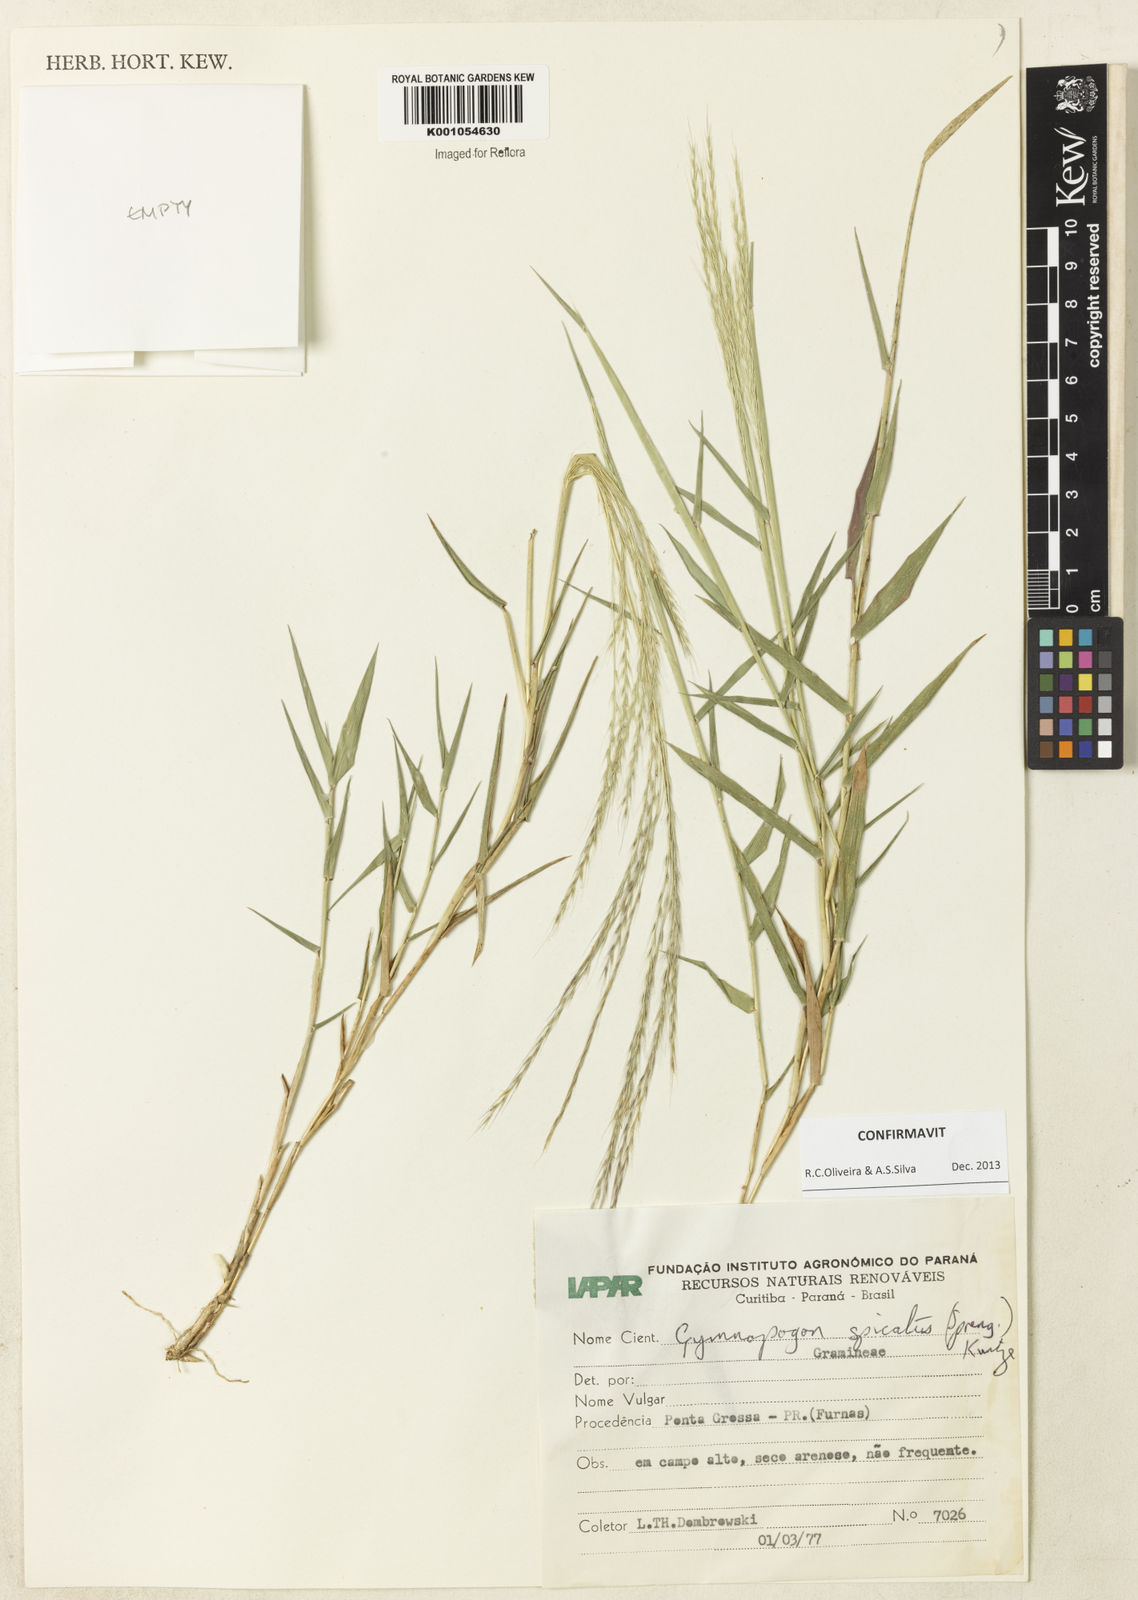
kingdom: Plantae
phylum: Tracheophyta
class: Liliopsida
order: Poales
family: Poaceae
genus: Gymnopogon
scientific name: Gymnopogon spicatus
